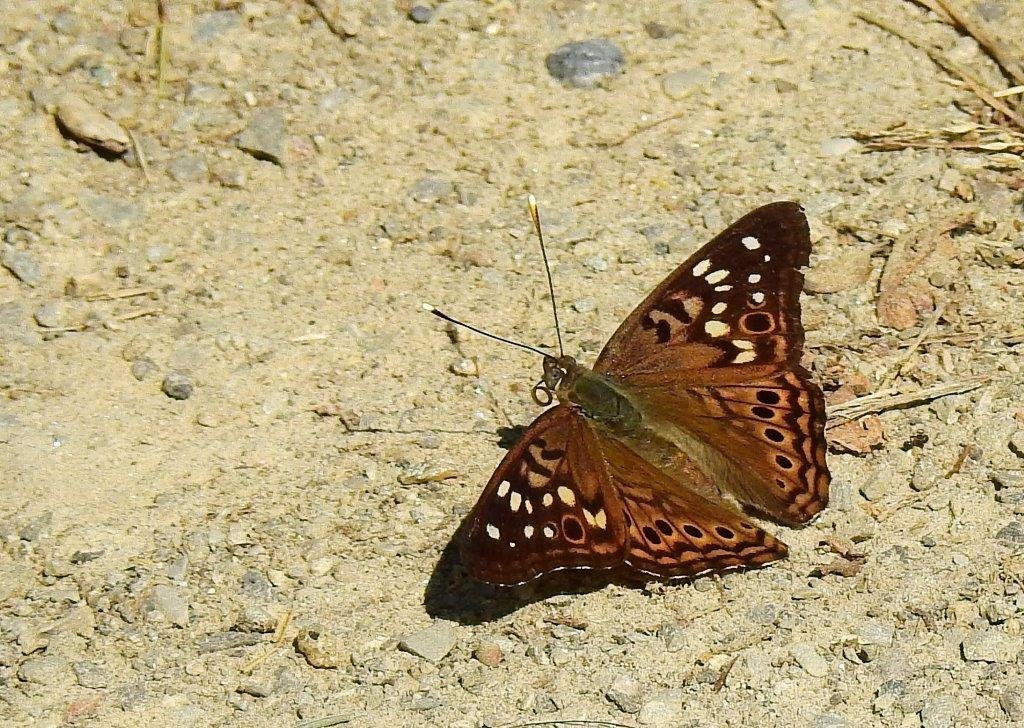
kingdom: Animalia
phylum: Arthropoda
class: Insecta
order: Lepidoptera
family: Nymphalidae
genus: Asterocampa
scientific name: Asterocampa celtis
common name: Hackberry Emperor
